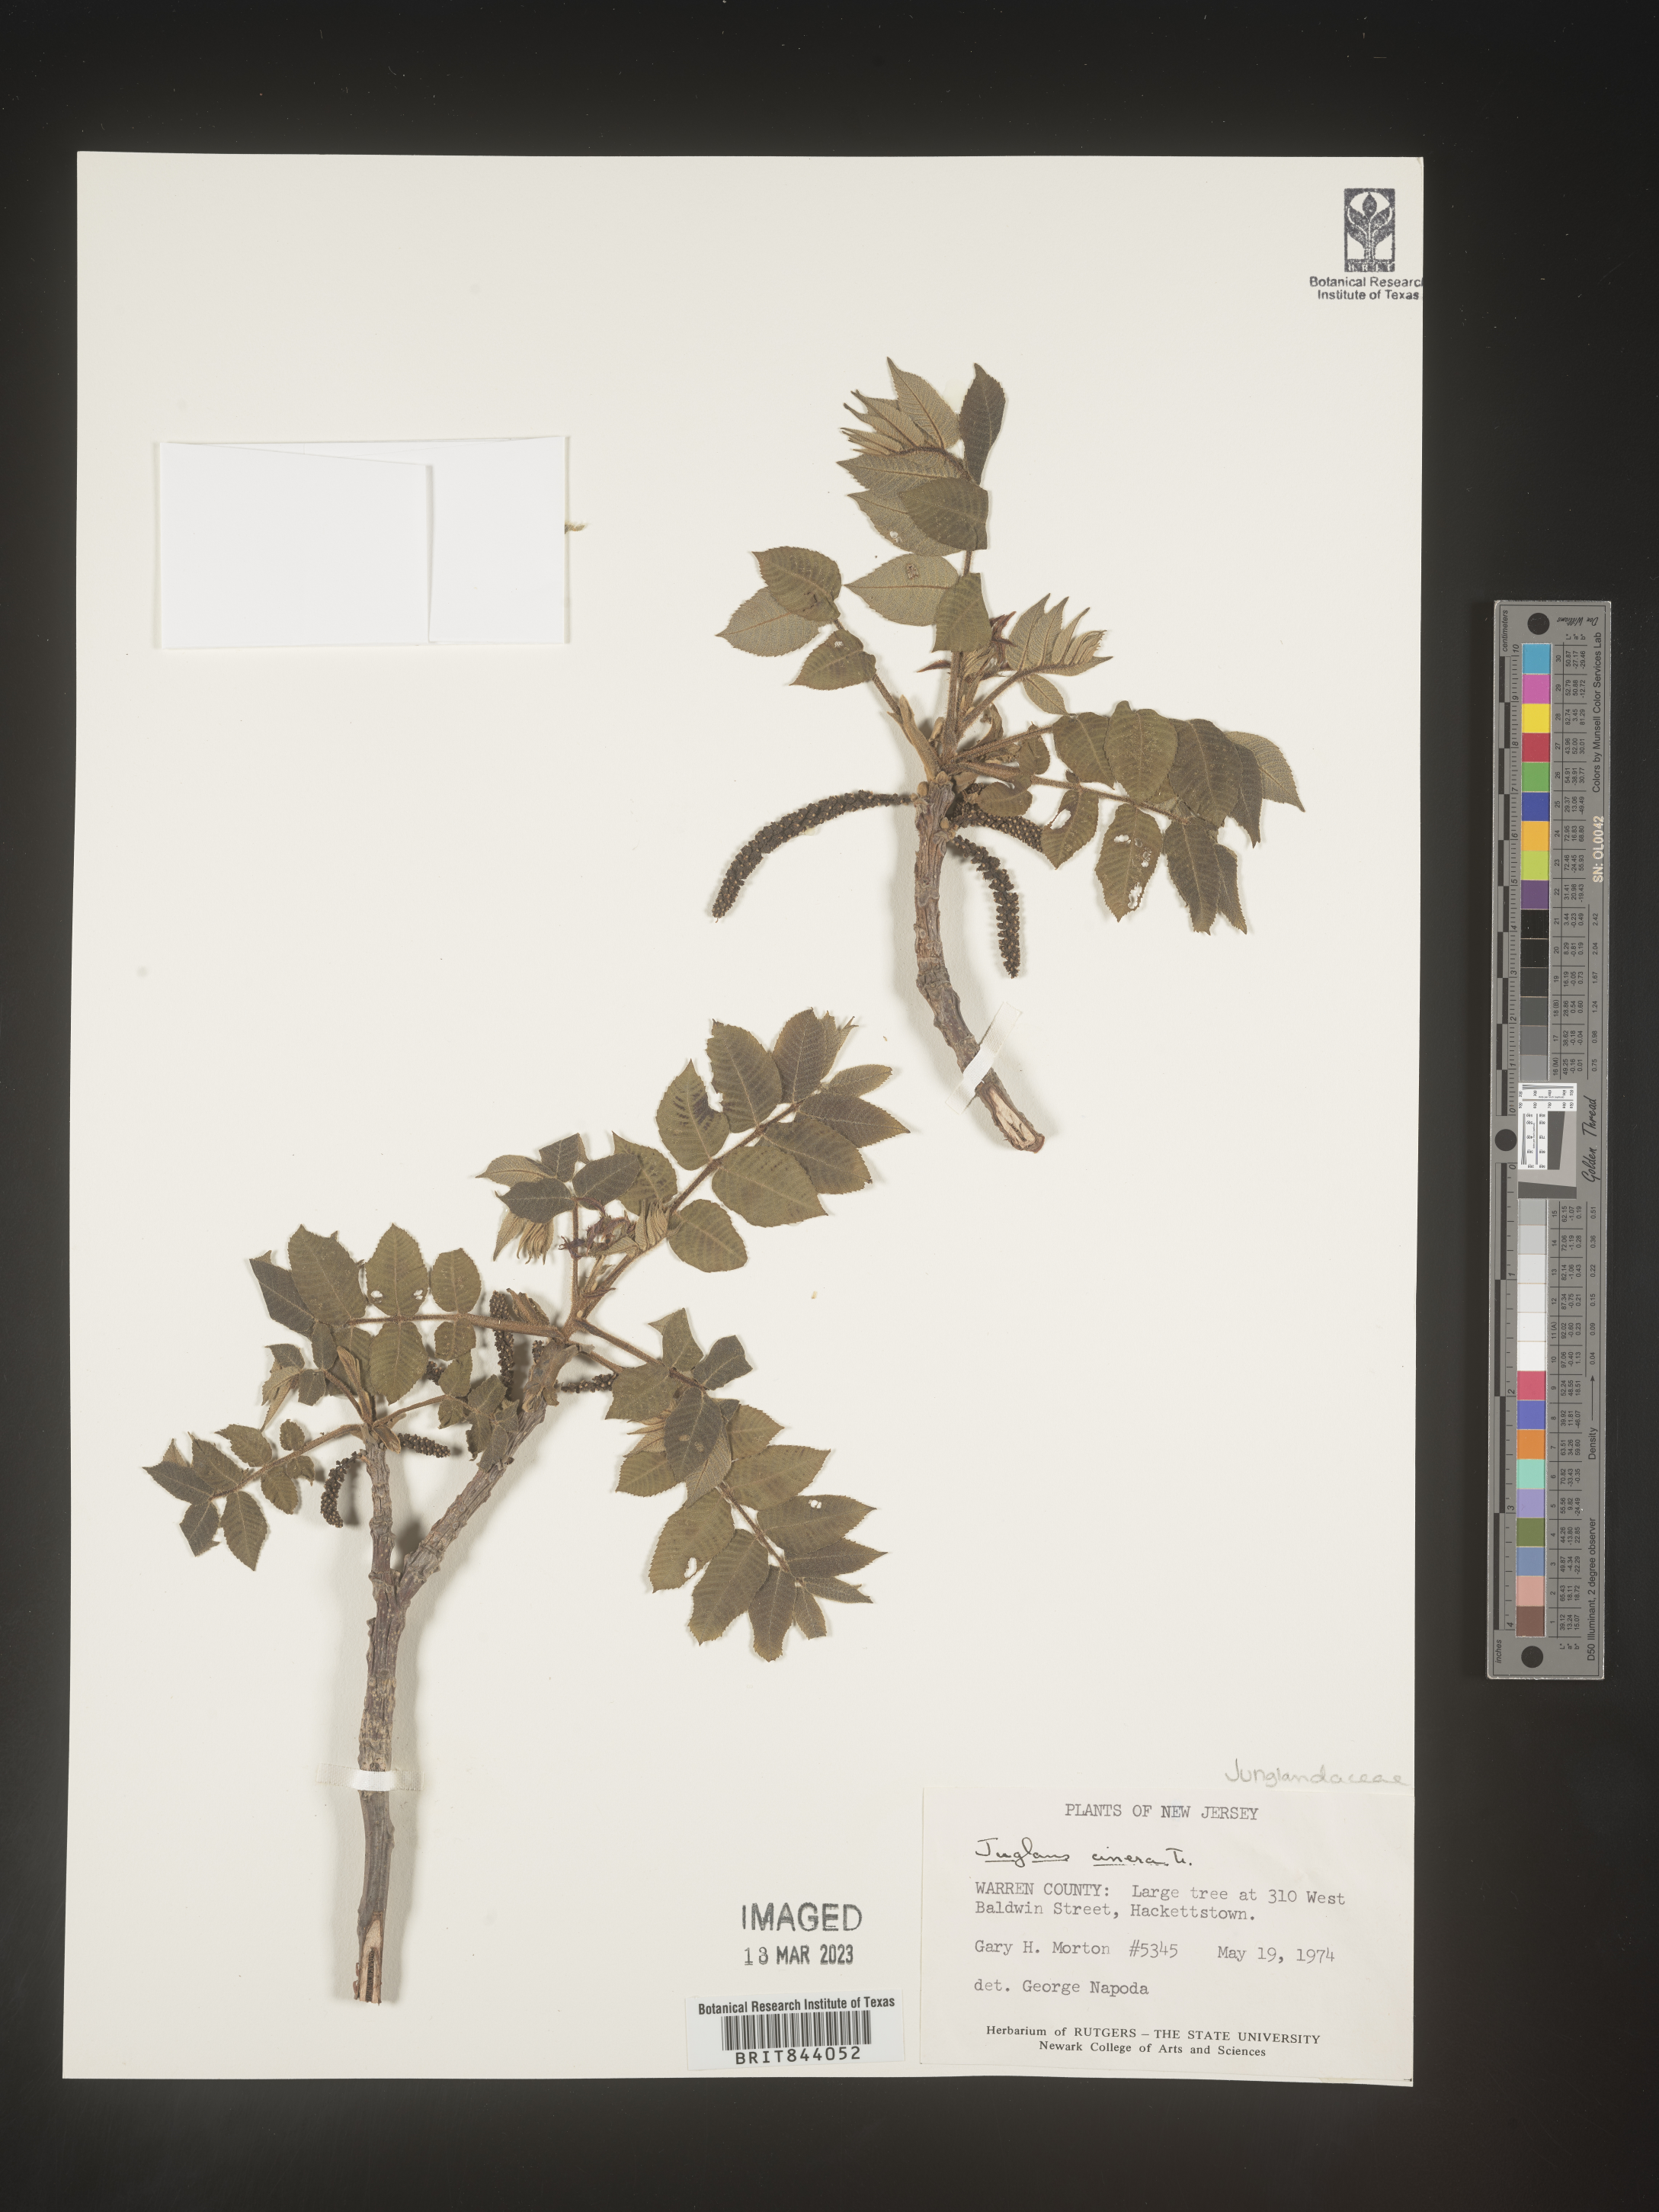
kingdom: Plantae
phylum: Tracheophyta
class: Magnoliopsida
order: Fagales
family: Juglandaceae
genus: Juglans
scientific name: Juglans cinerea
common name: Butternut
